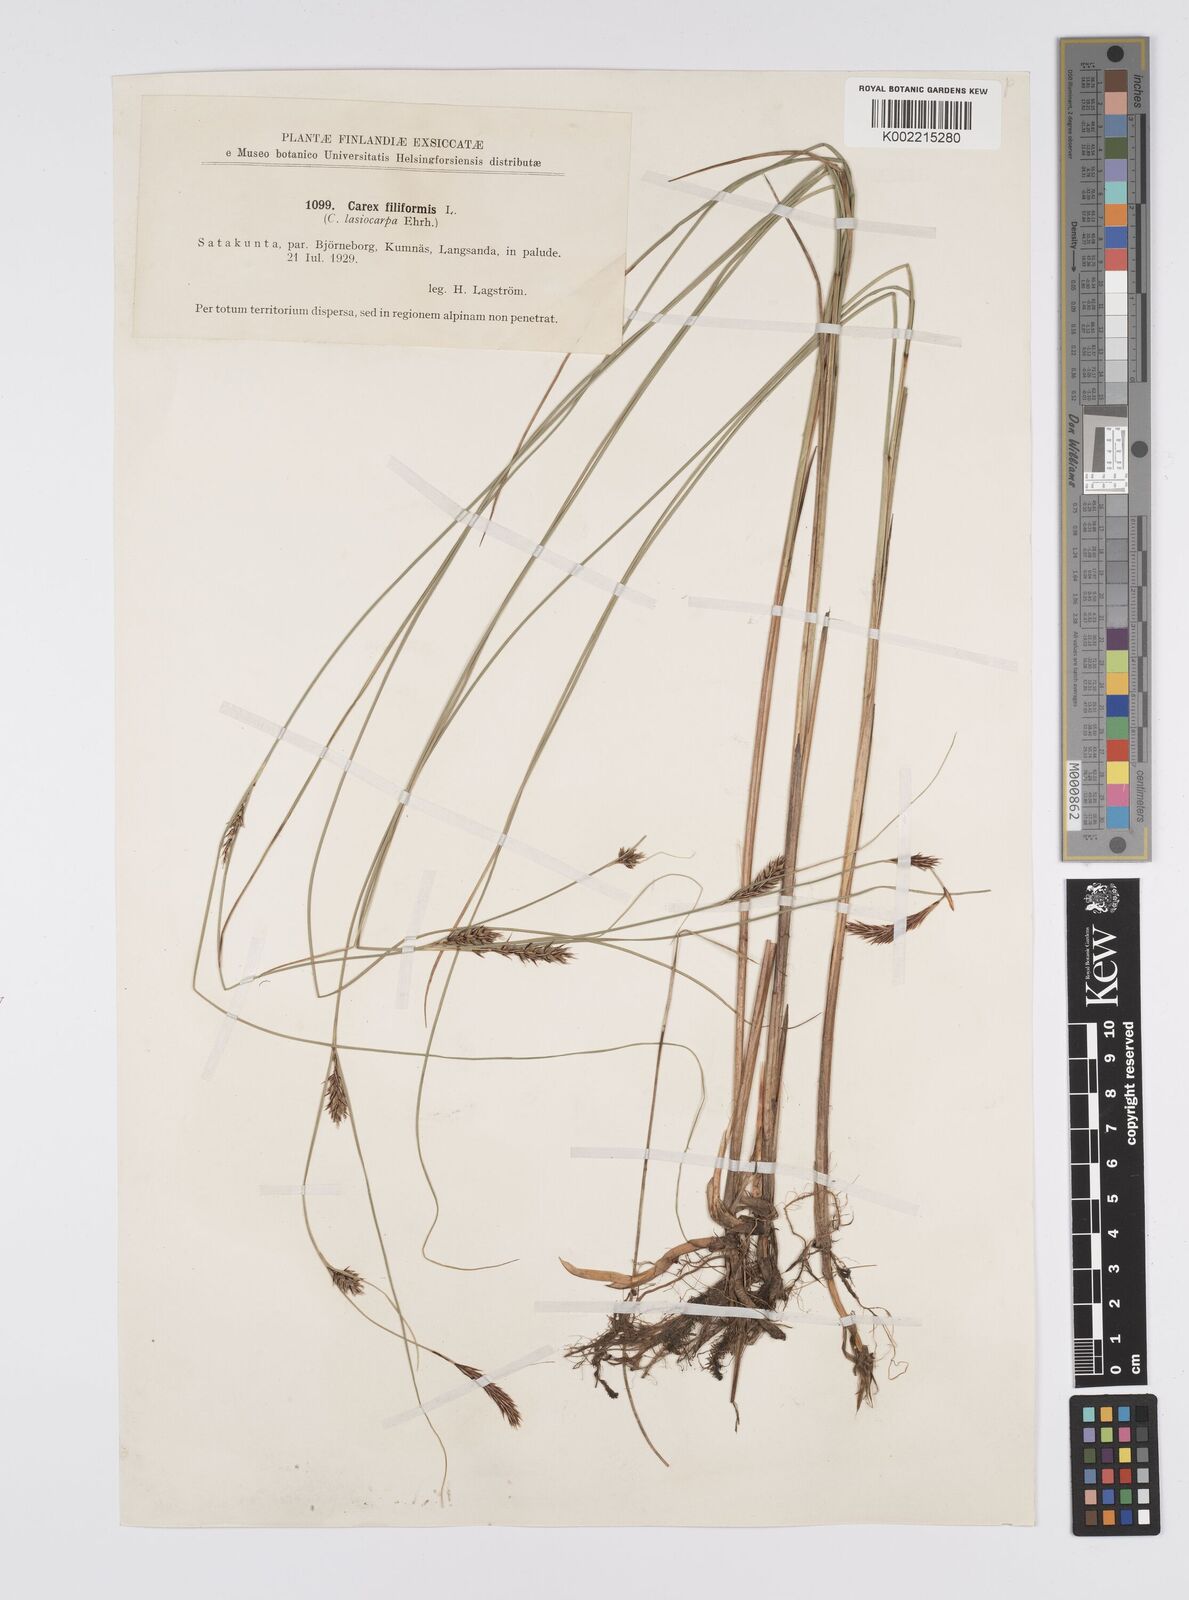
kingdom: Plantae
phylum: Tracheophyta
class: Liliopsida
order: Poales
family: Cyperaceae
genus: Carex
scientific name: Carex lasiocarpa
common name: Slender sedge
